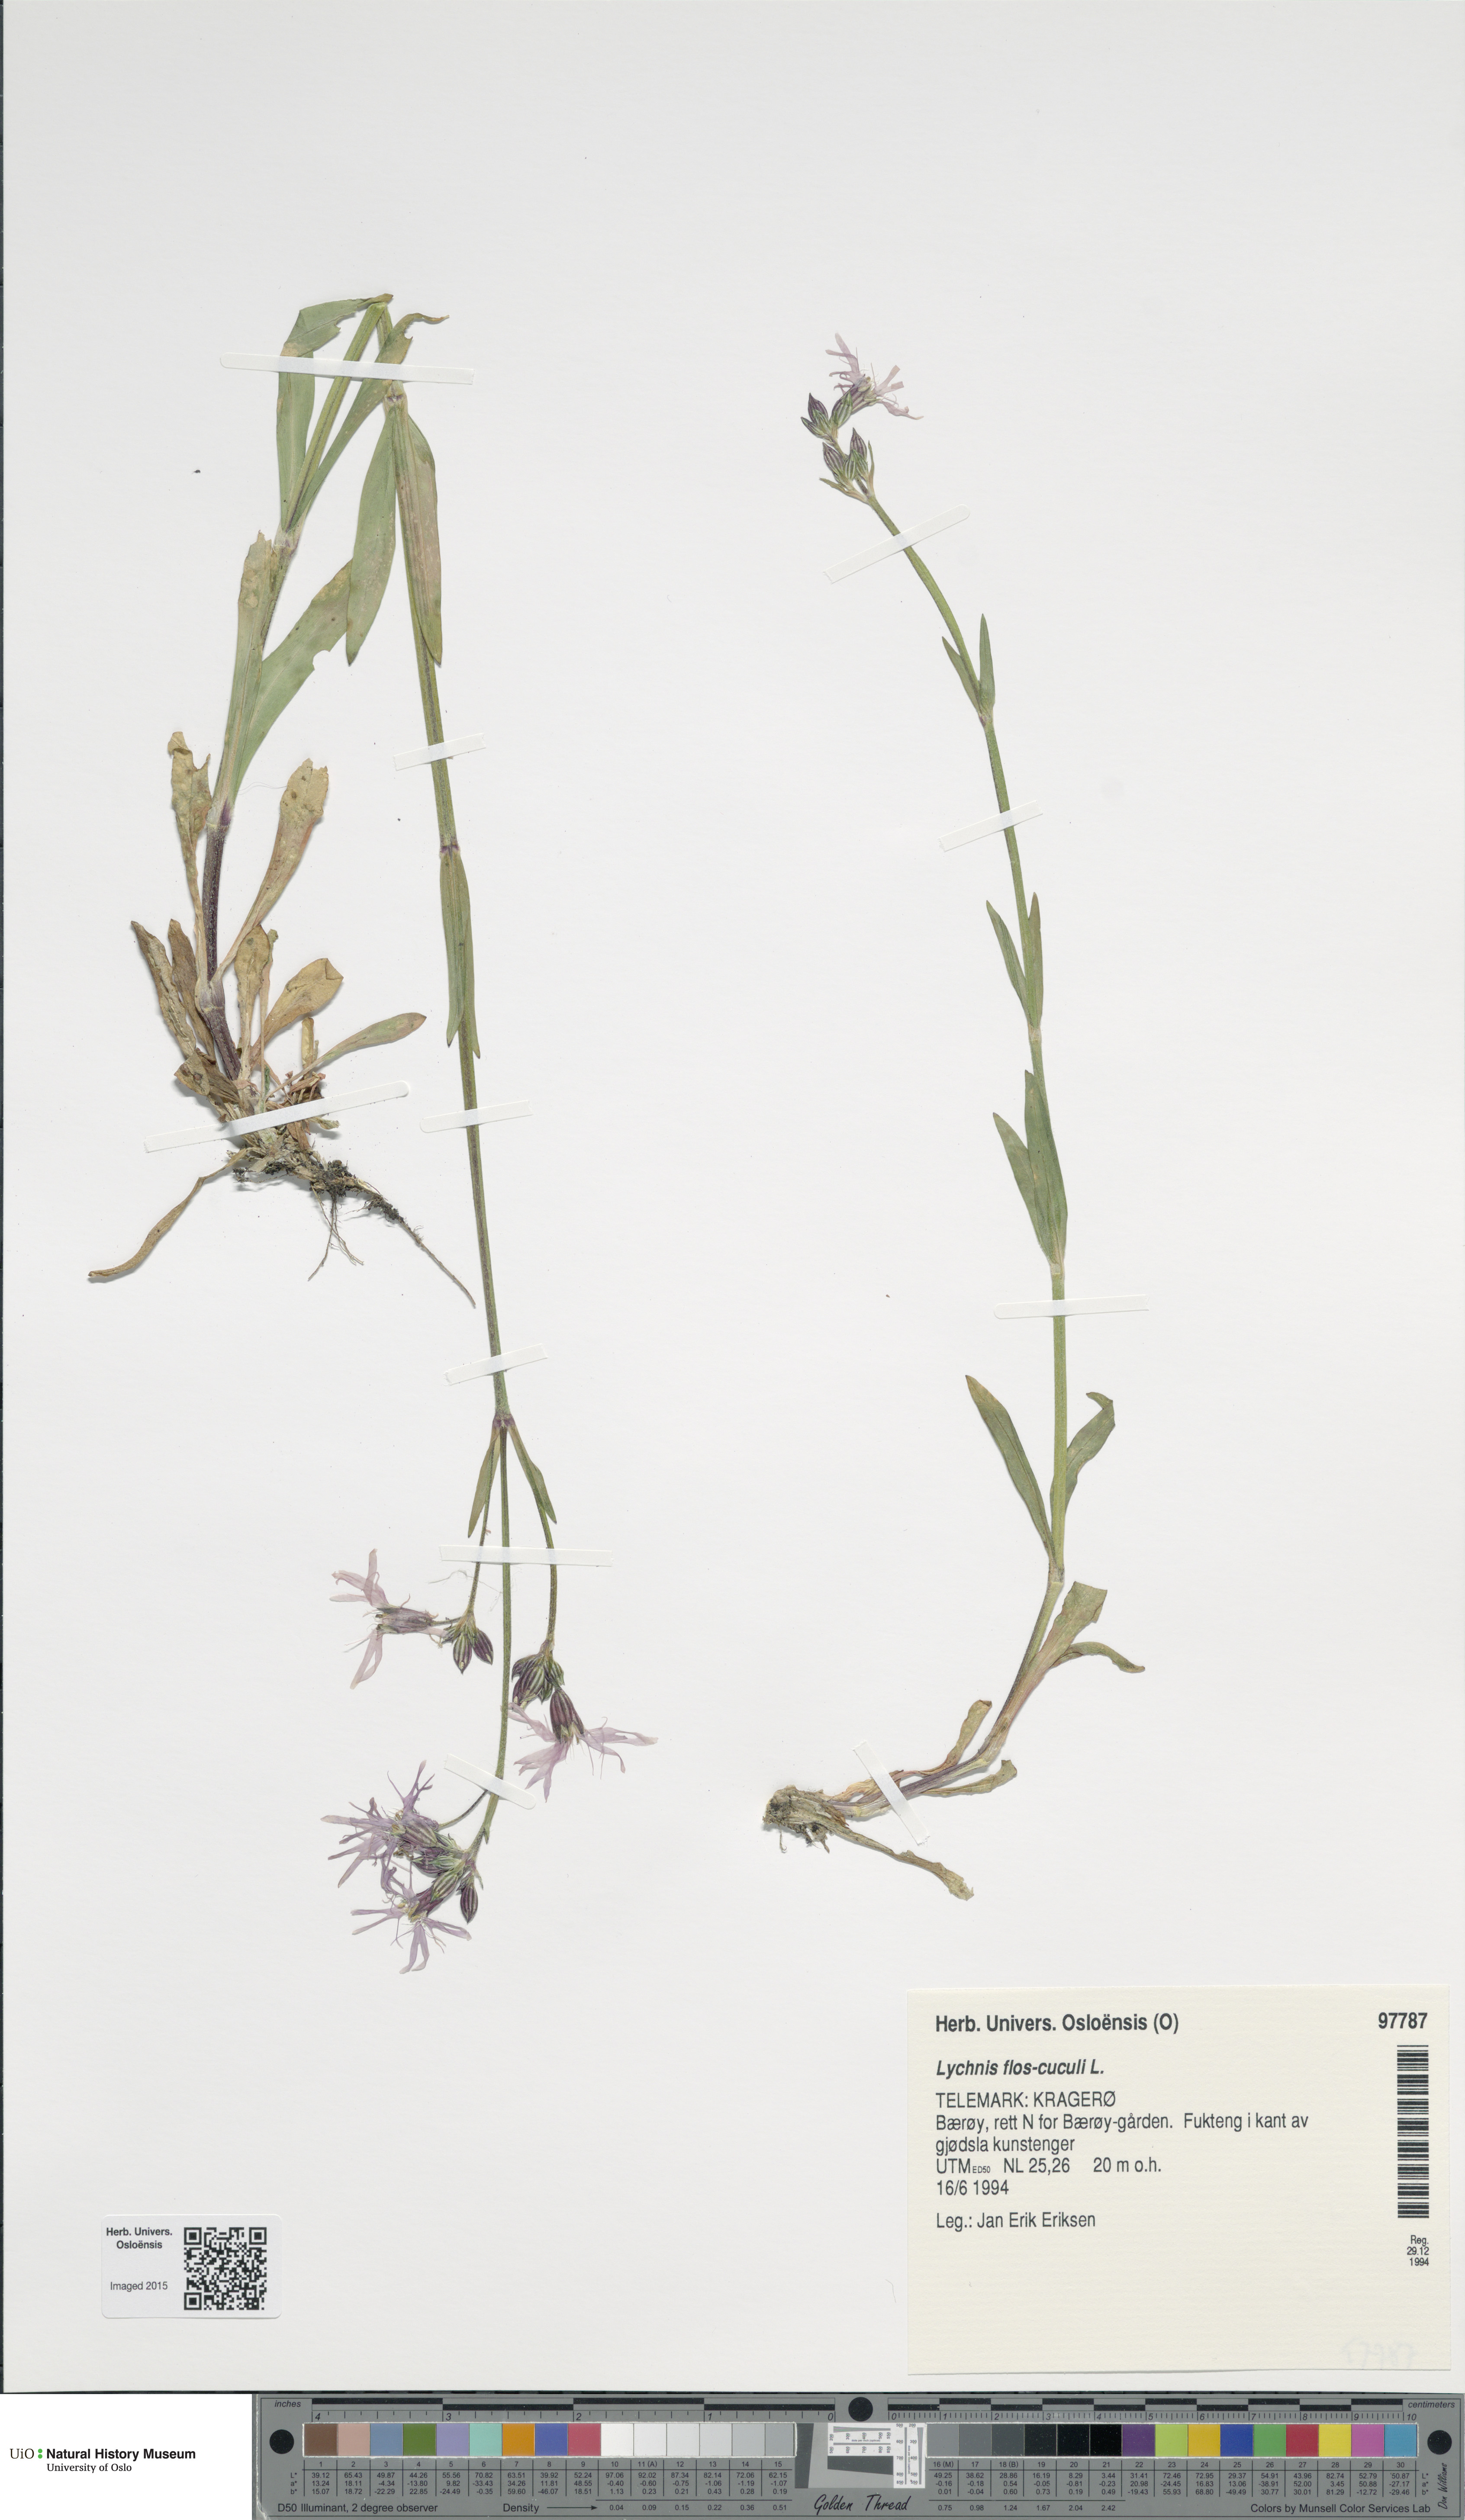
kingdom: Plantae
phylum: Tracheophyta
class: Magnoliopsida
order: Caryophyllales
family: Caryophyllaceae
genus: Silene
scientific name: Silene flos-cuculi
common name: Ragged-robin
